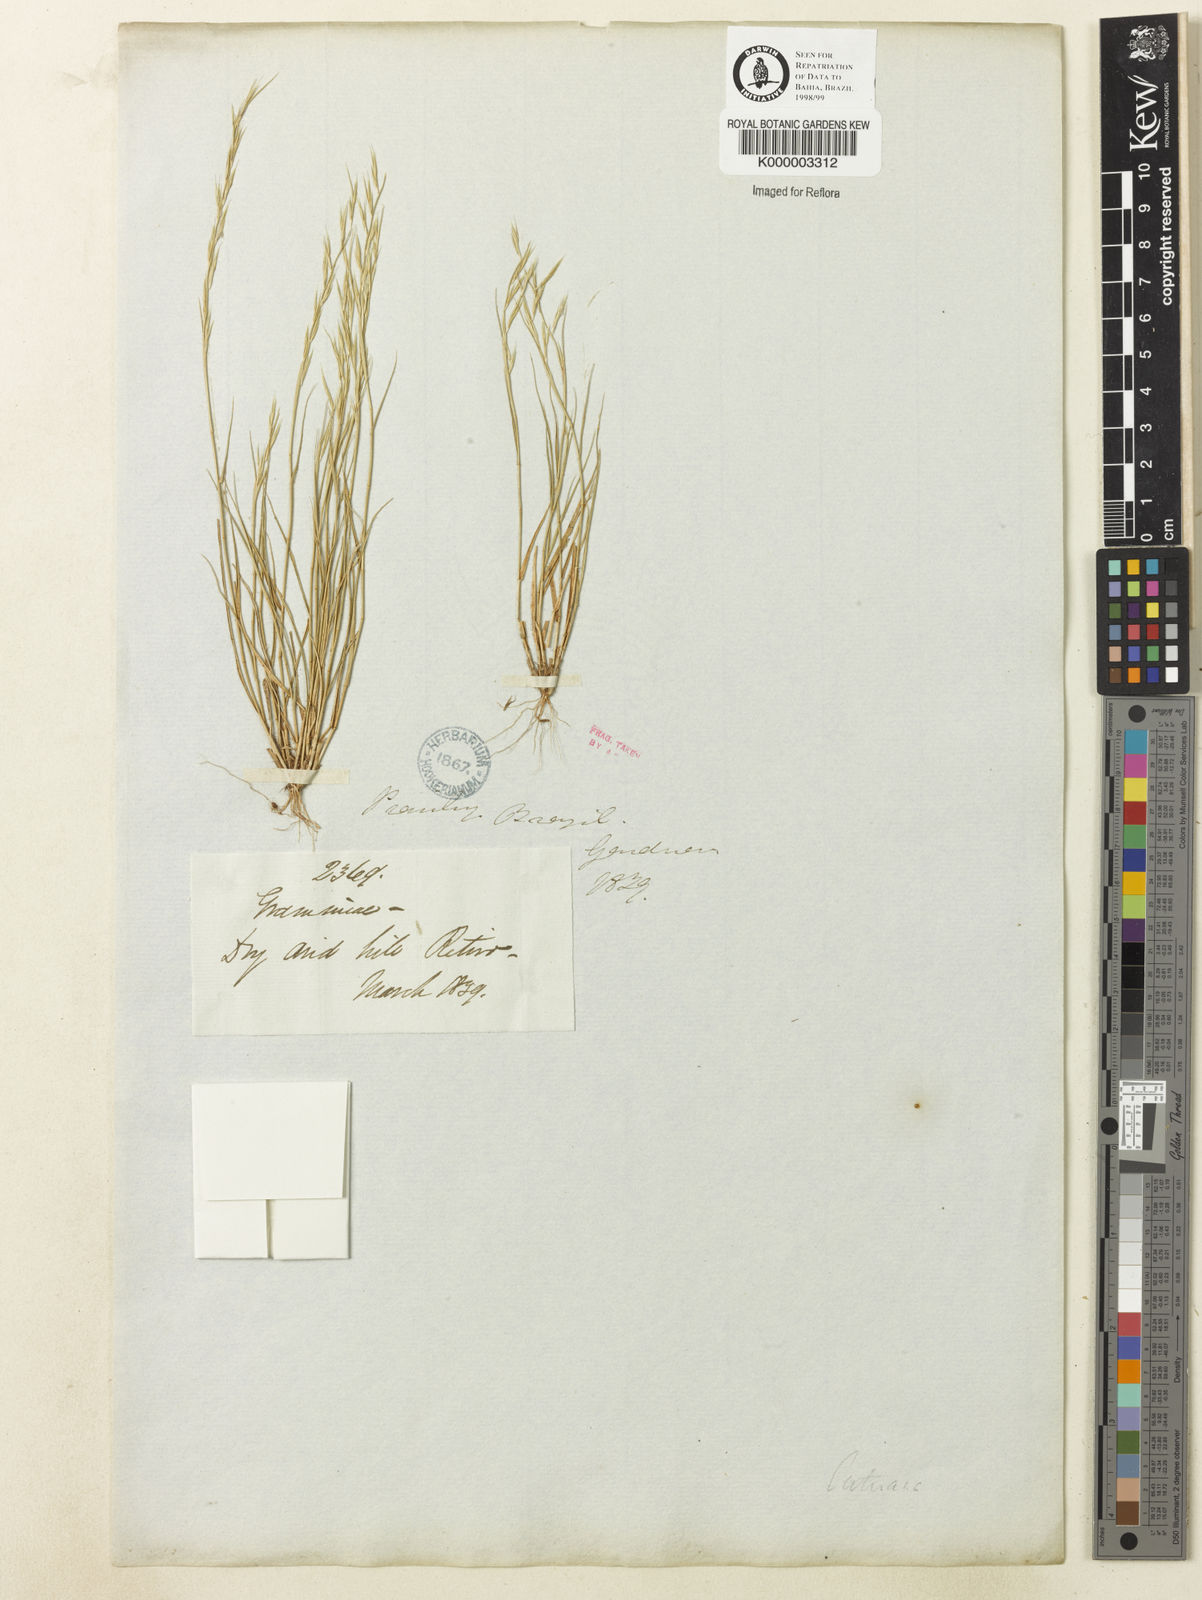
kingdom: Plantae
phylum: Tracheophyta
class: Liliopsida
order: Poales
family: Poaceae
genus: Bouteloua
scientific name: Bouteloua aristidoides
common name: Needle grama
